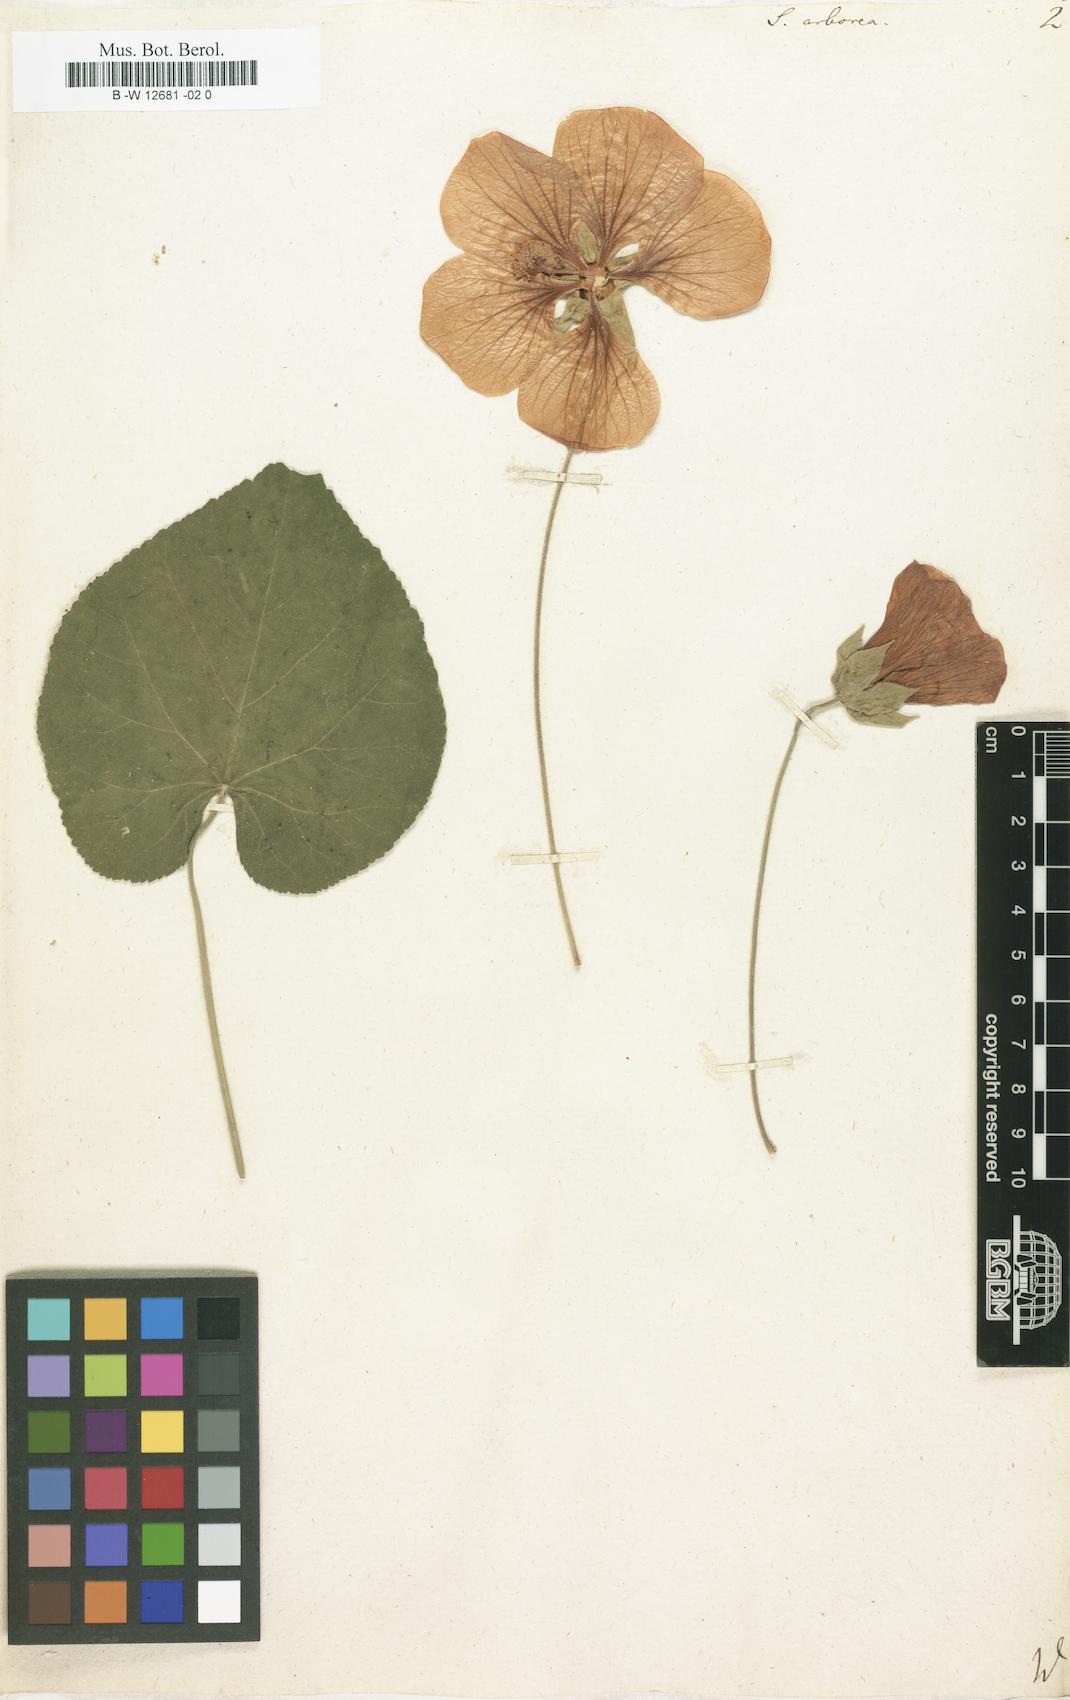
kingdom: Plantae
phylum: Tracheophyta
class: Magnoliopsida
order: Malvales
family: Malvaceae
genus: Callianthe
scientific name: Callianthe peruviana
